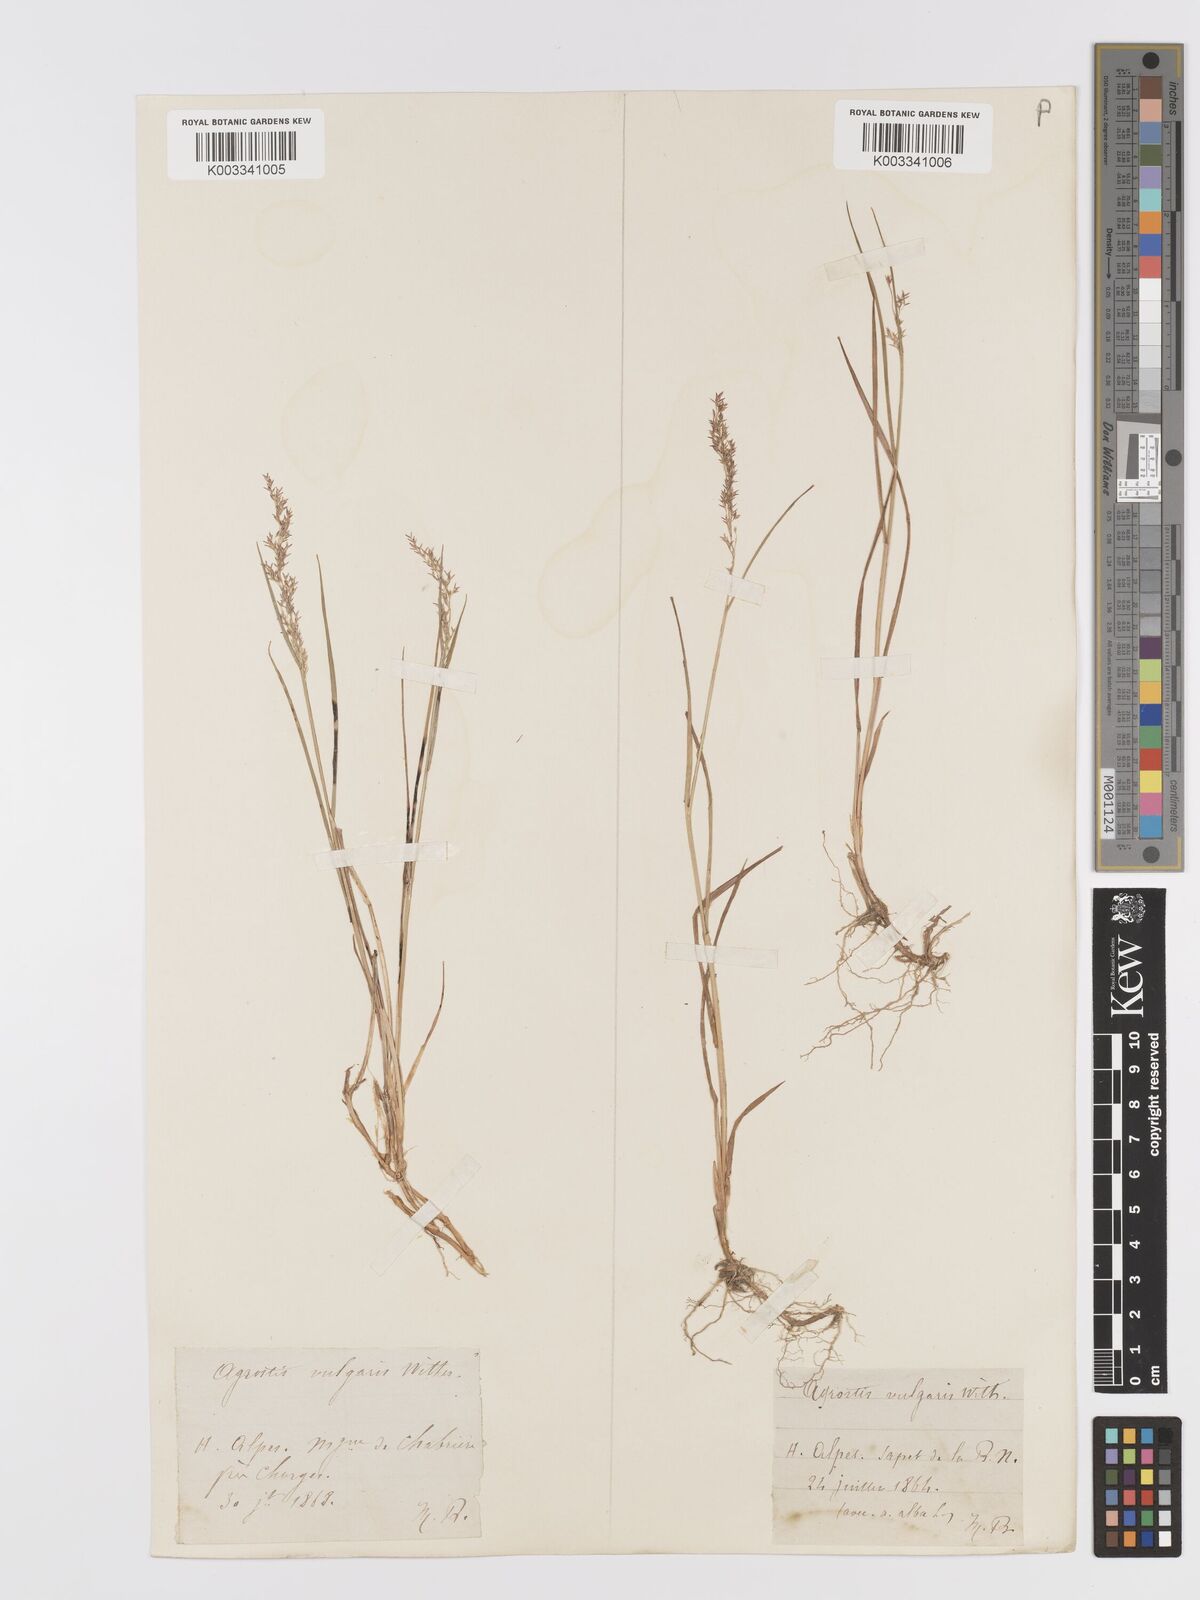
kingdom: Plantae
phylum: Tracheophyta
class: Liliopsida
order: Poales
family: Poaceae
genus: Agrostis
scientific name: Agrostis capillaris
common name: Colonial bentgrass
